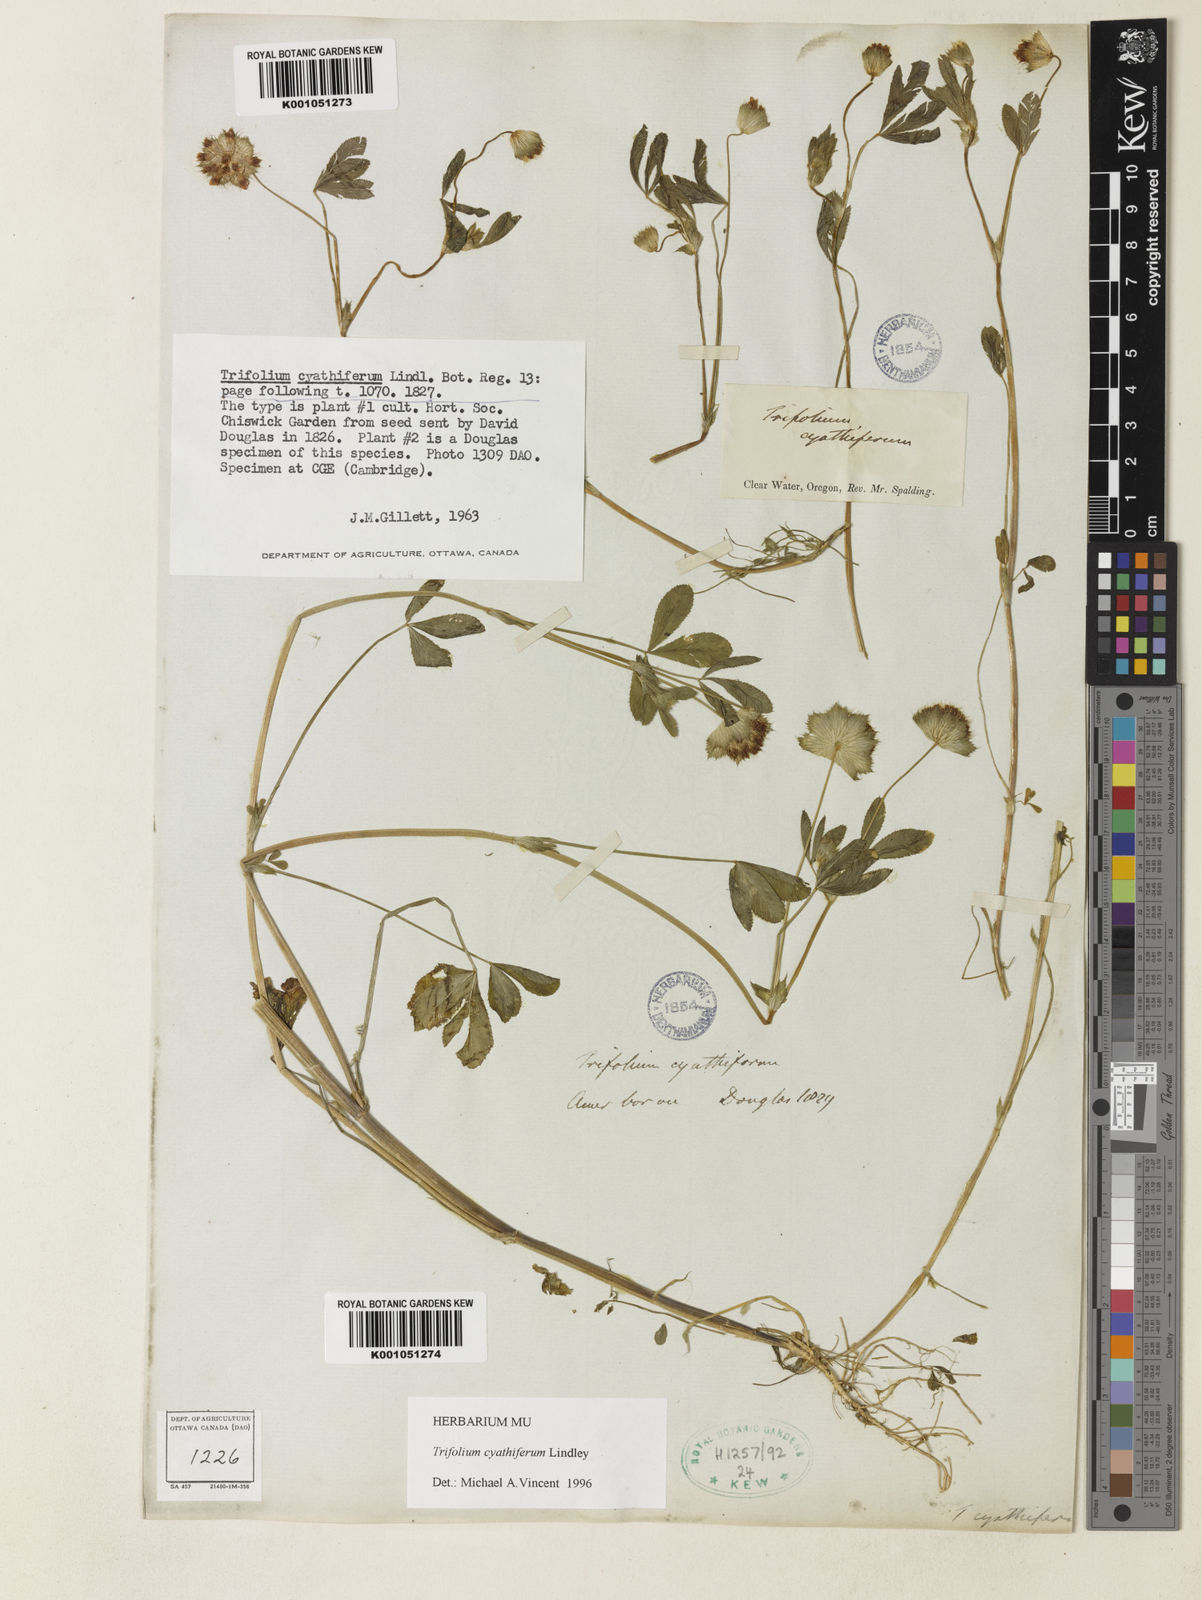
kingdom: Plantae
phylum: Tracheophyta
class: Magnoliopsida
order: Fabales
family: Fabaceae
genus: Trifolium
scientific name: Trifolium cyathiferum
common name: Bowl clover
